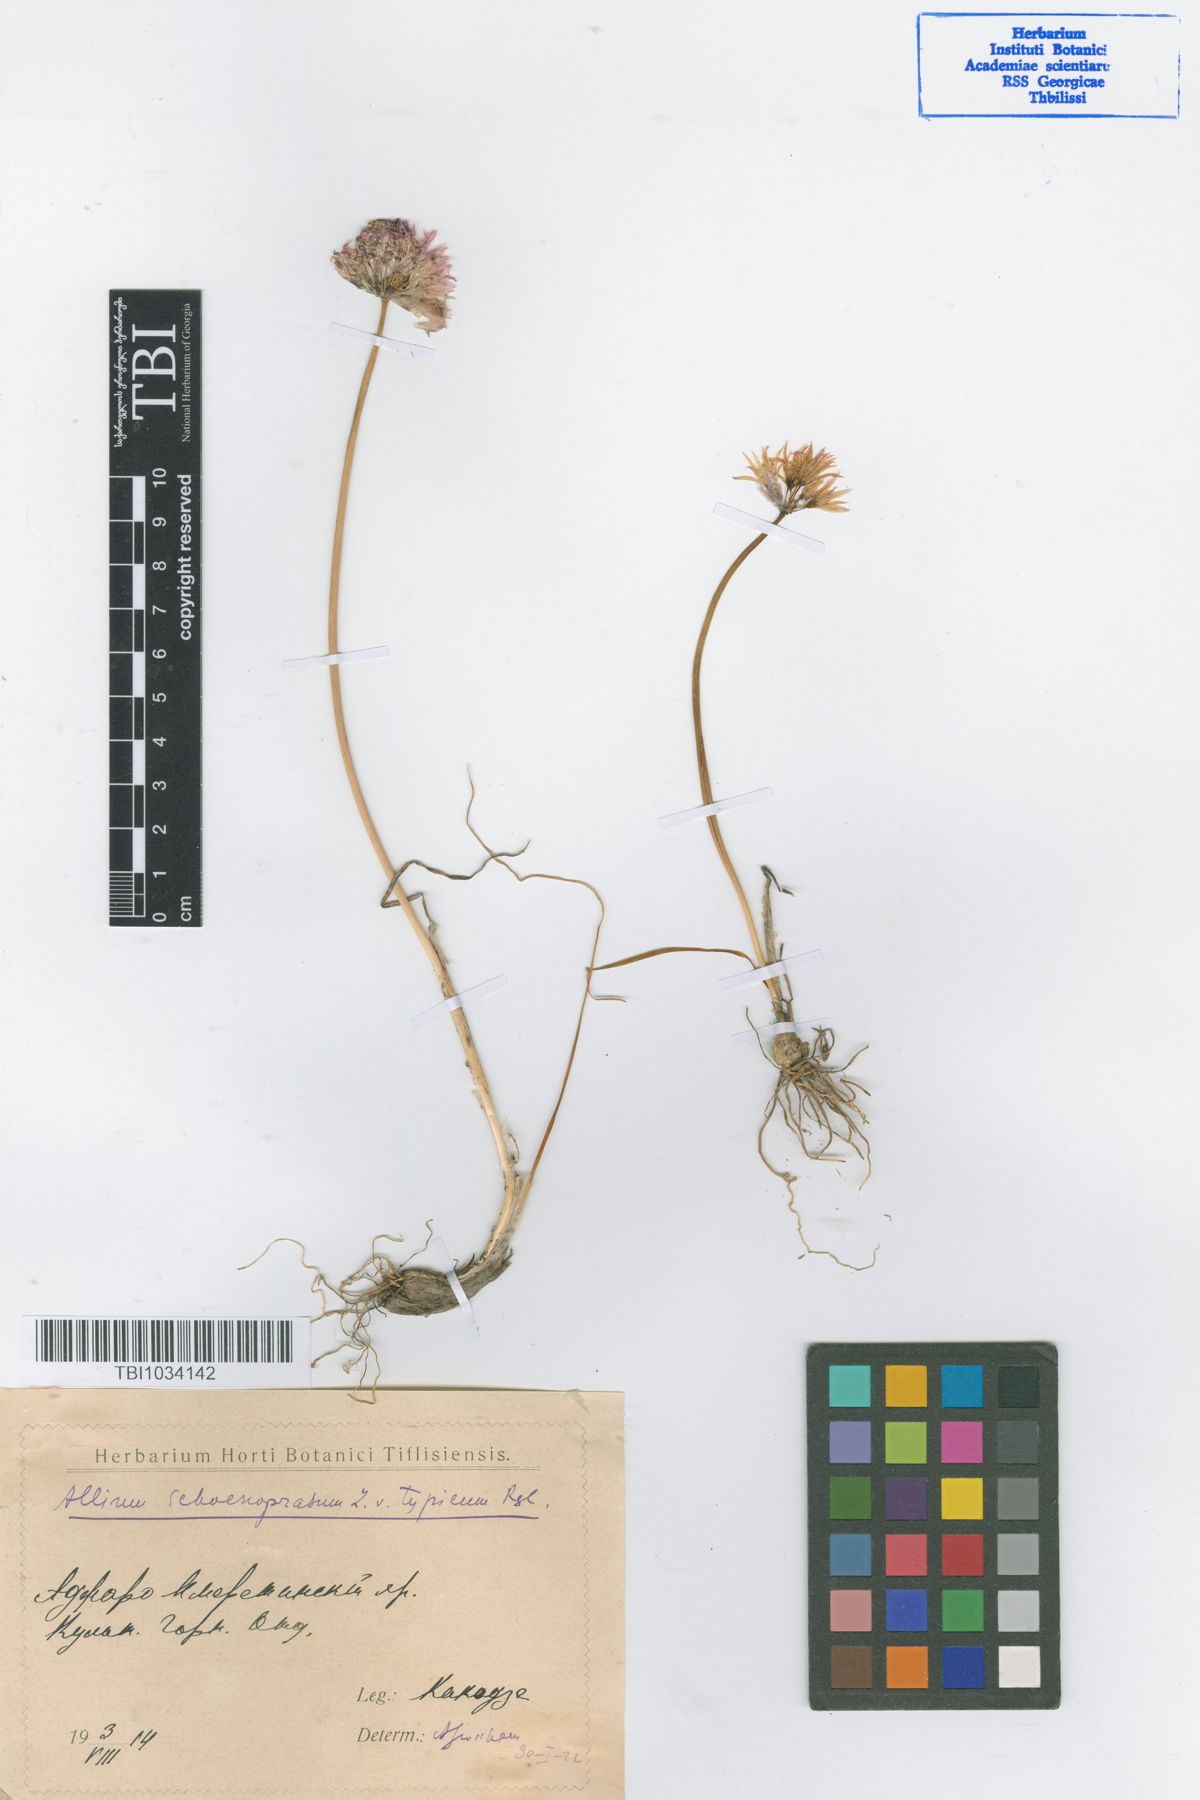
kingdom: Plantae
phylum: Tracheophyta
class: Liliopsida
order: Asparagales
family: Amaryllidaceae
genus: Allium
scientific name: Allium schoenoprasum
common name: Chives
